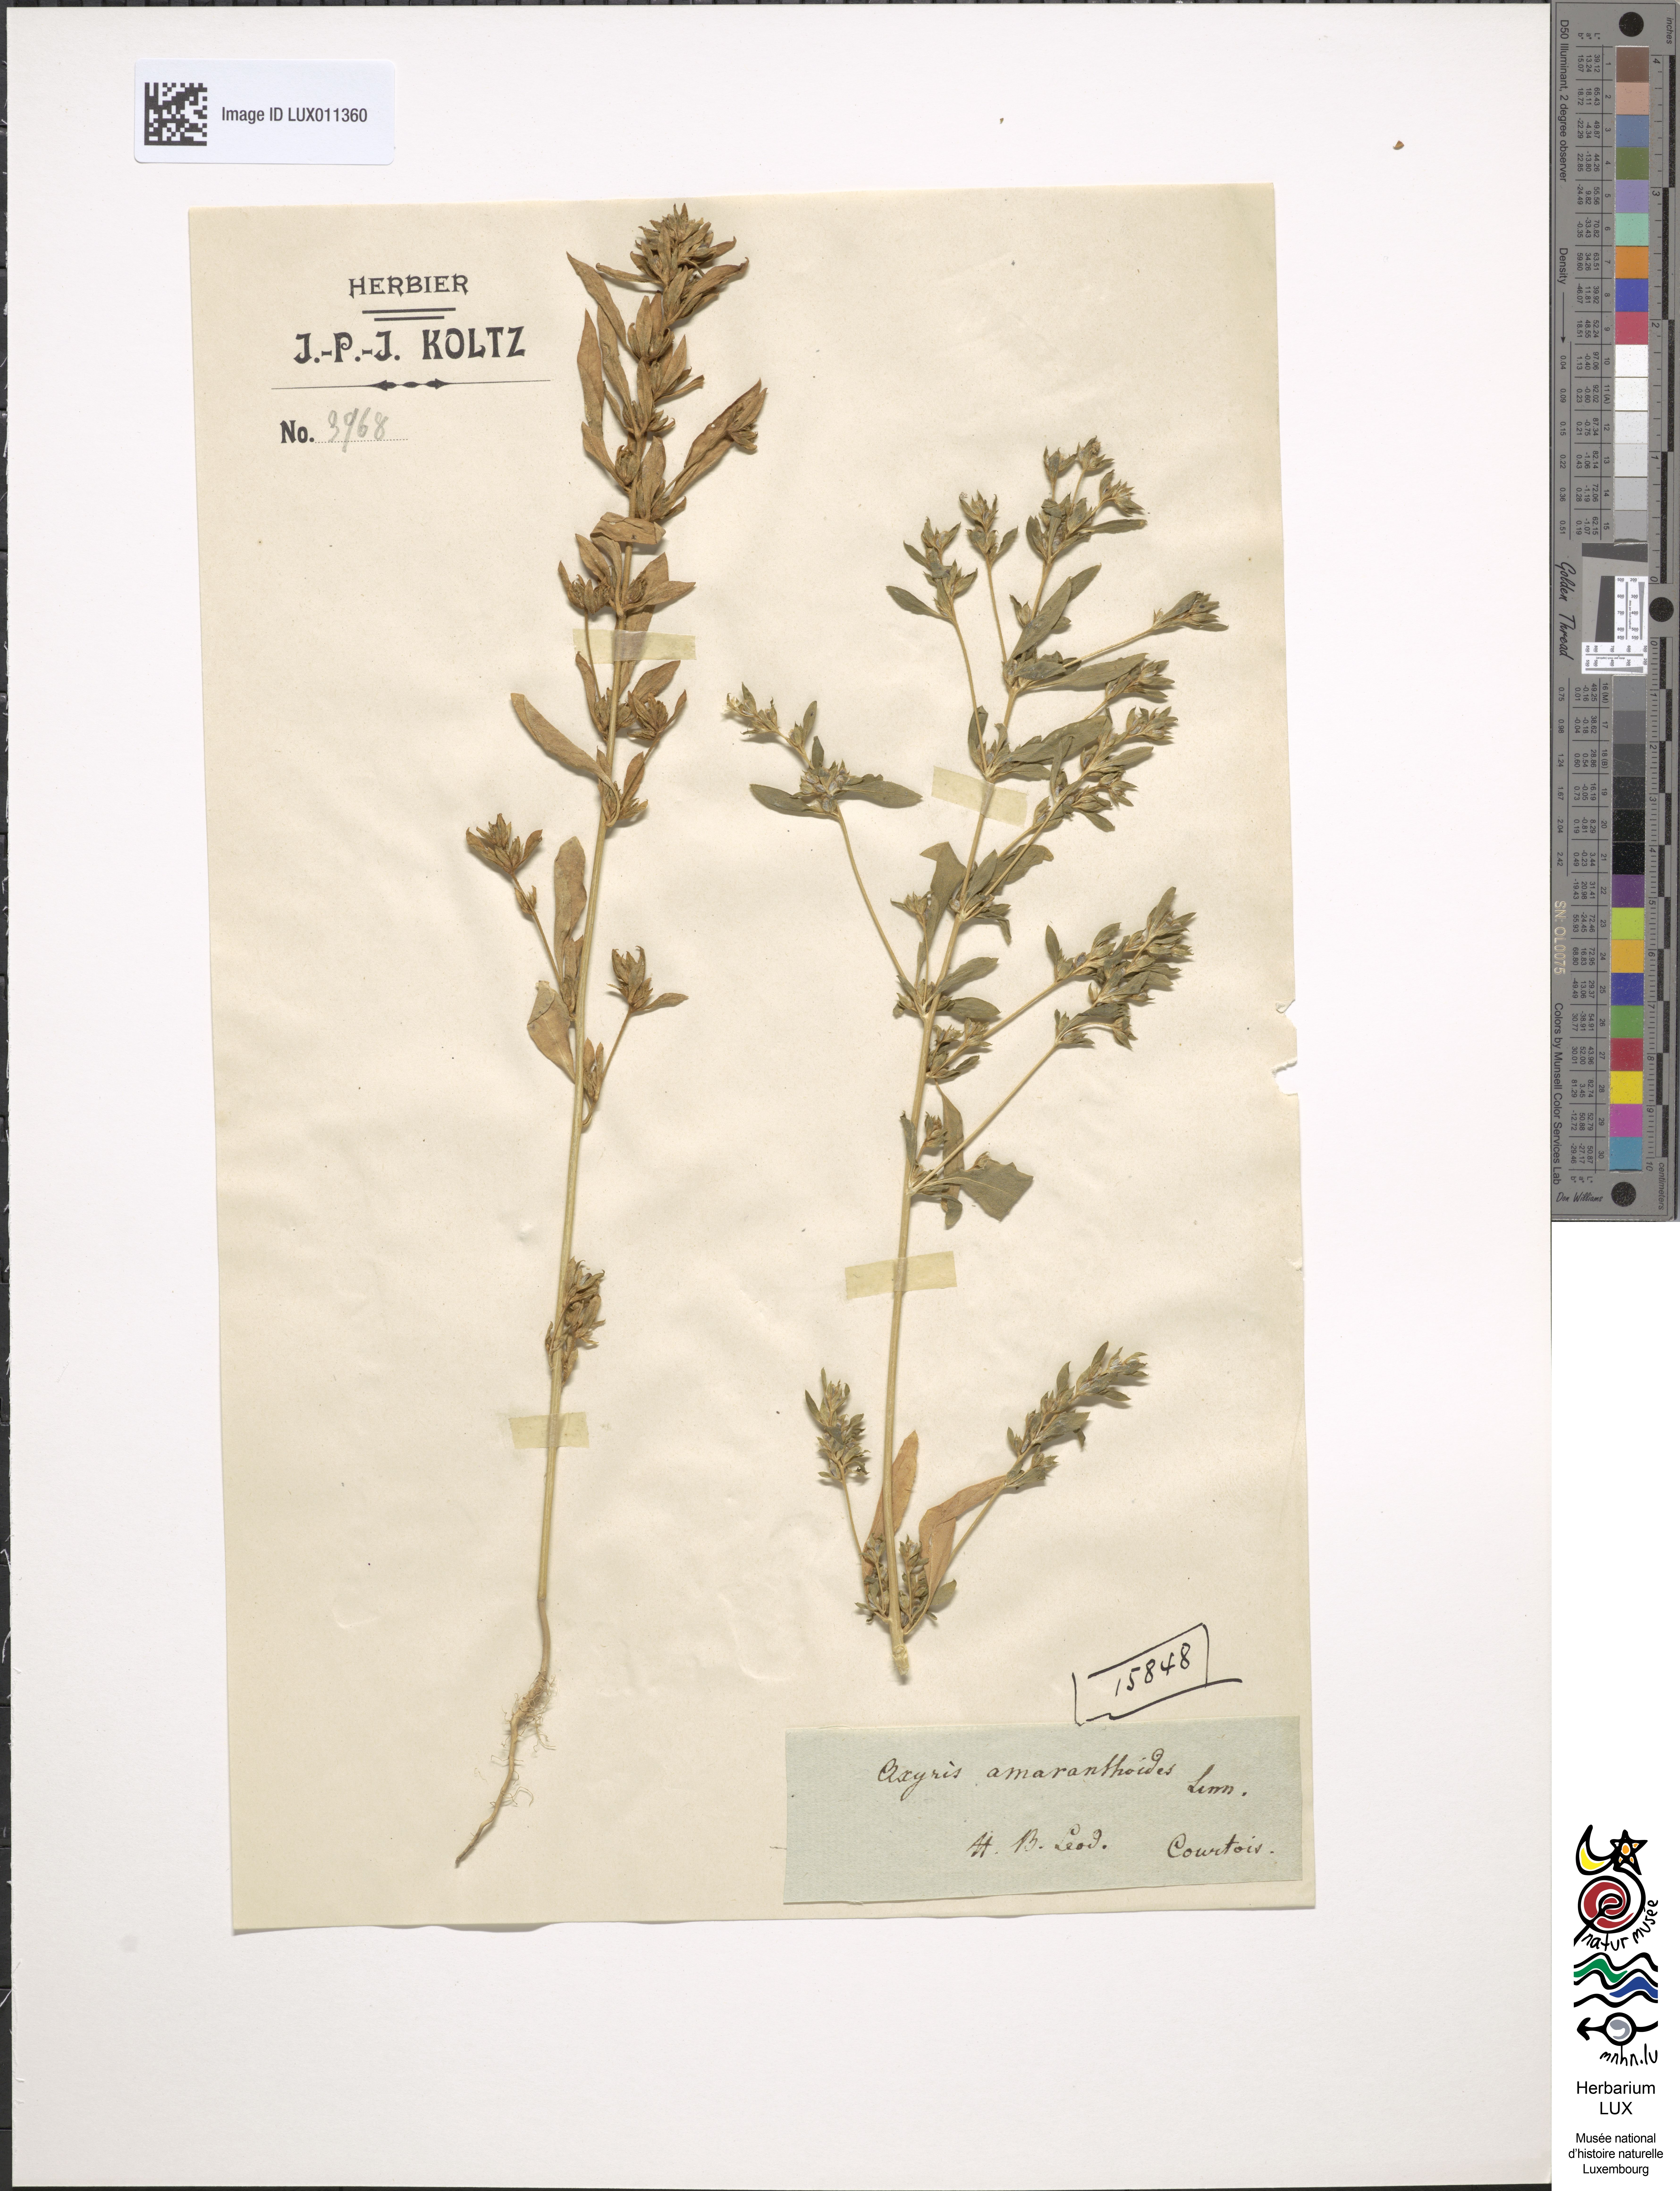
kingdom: Plantae
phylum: Tracheophyta
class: Magnoliopsida
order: Caryophyllales
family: Amaranthaceae
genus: Axyris
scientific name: Axyris amaranthoides
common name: Russian pigweed
